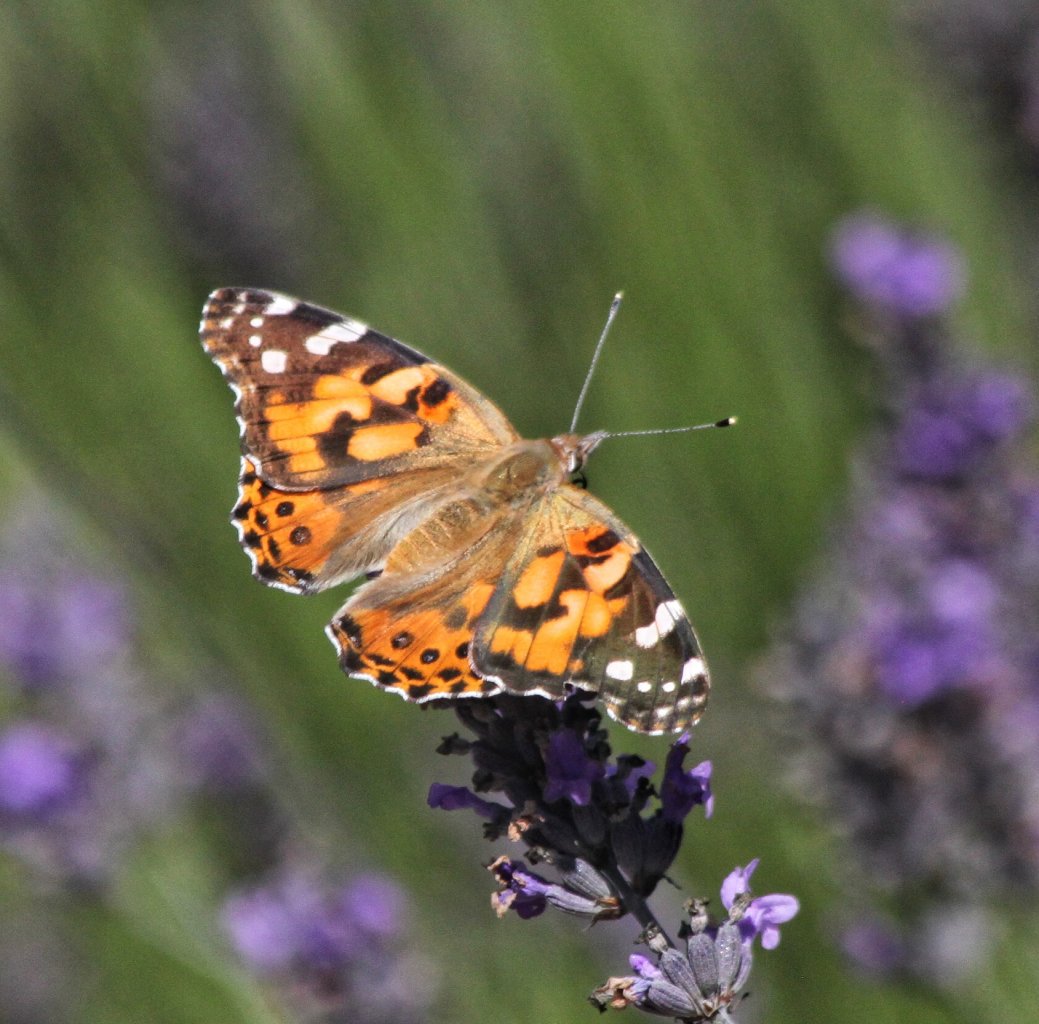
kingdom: Animalia
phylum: Arthropoda
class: Insecta
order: Lepidoptera
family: Nymphalidae
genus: Vanessa
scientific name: Vanessa cardui
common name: Painted Lady
